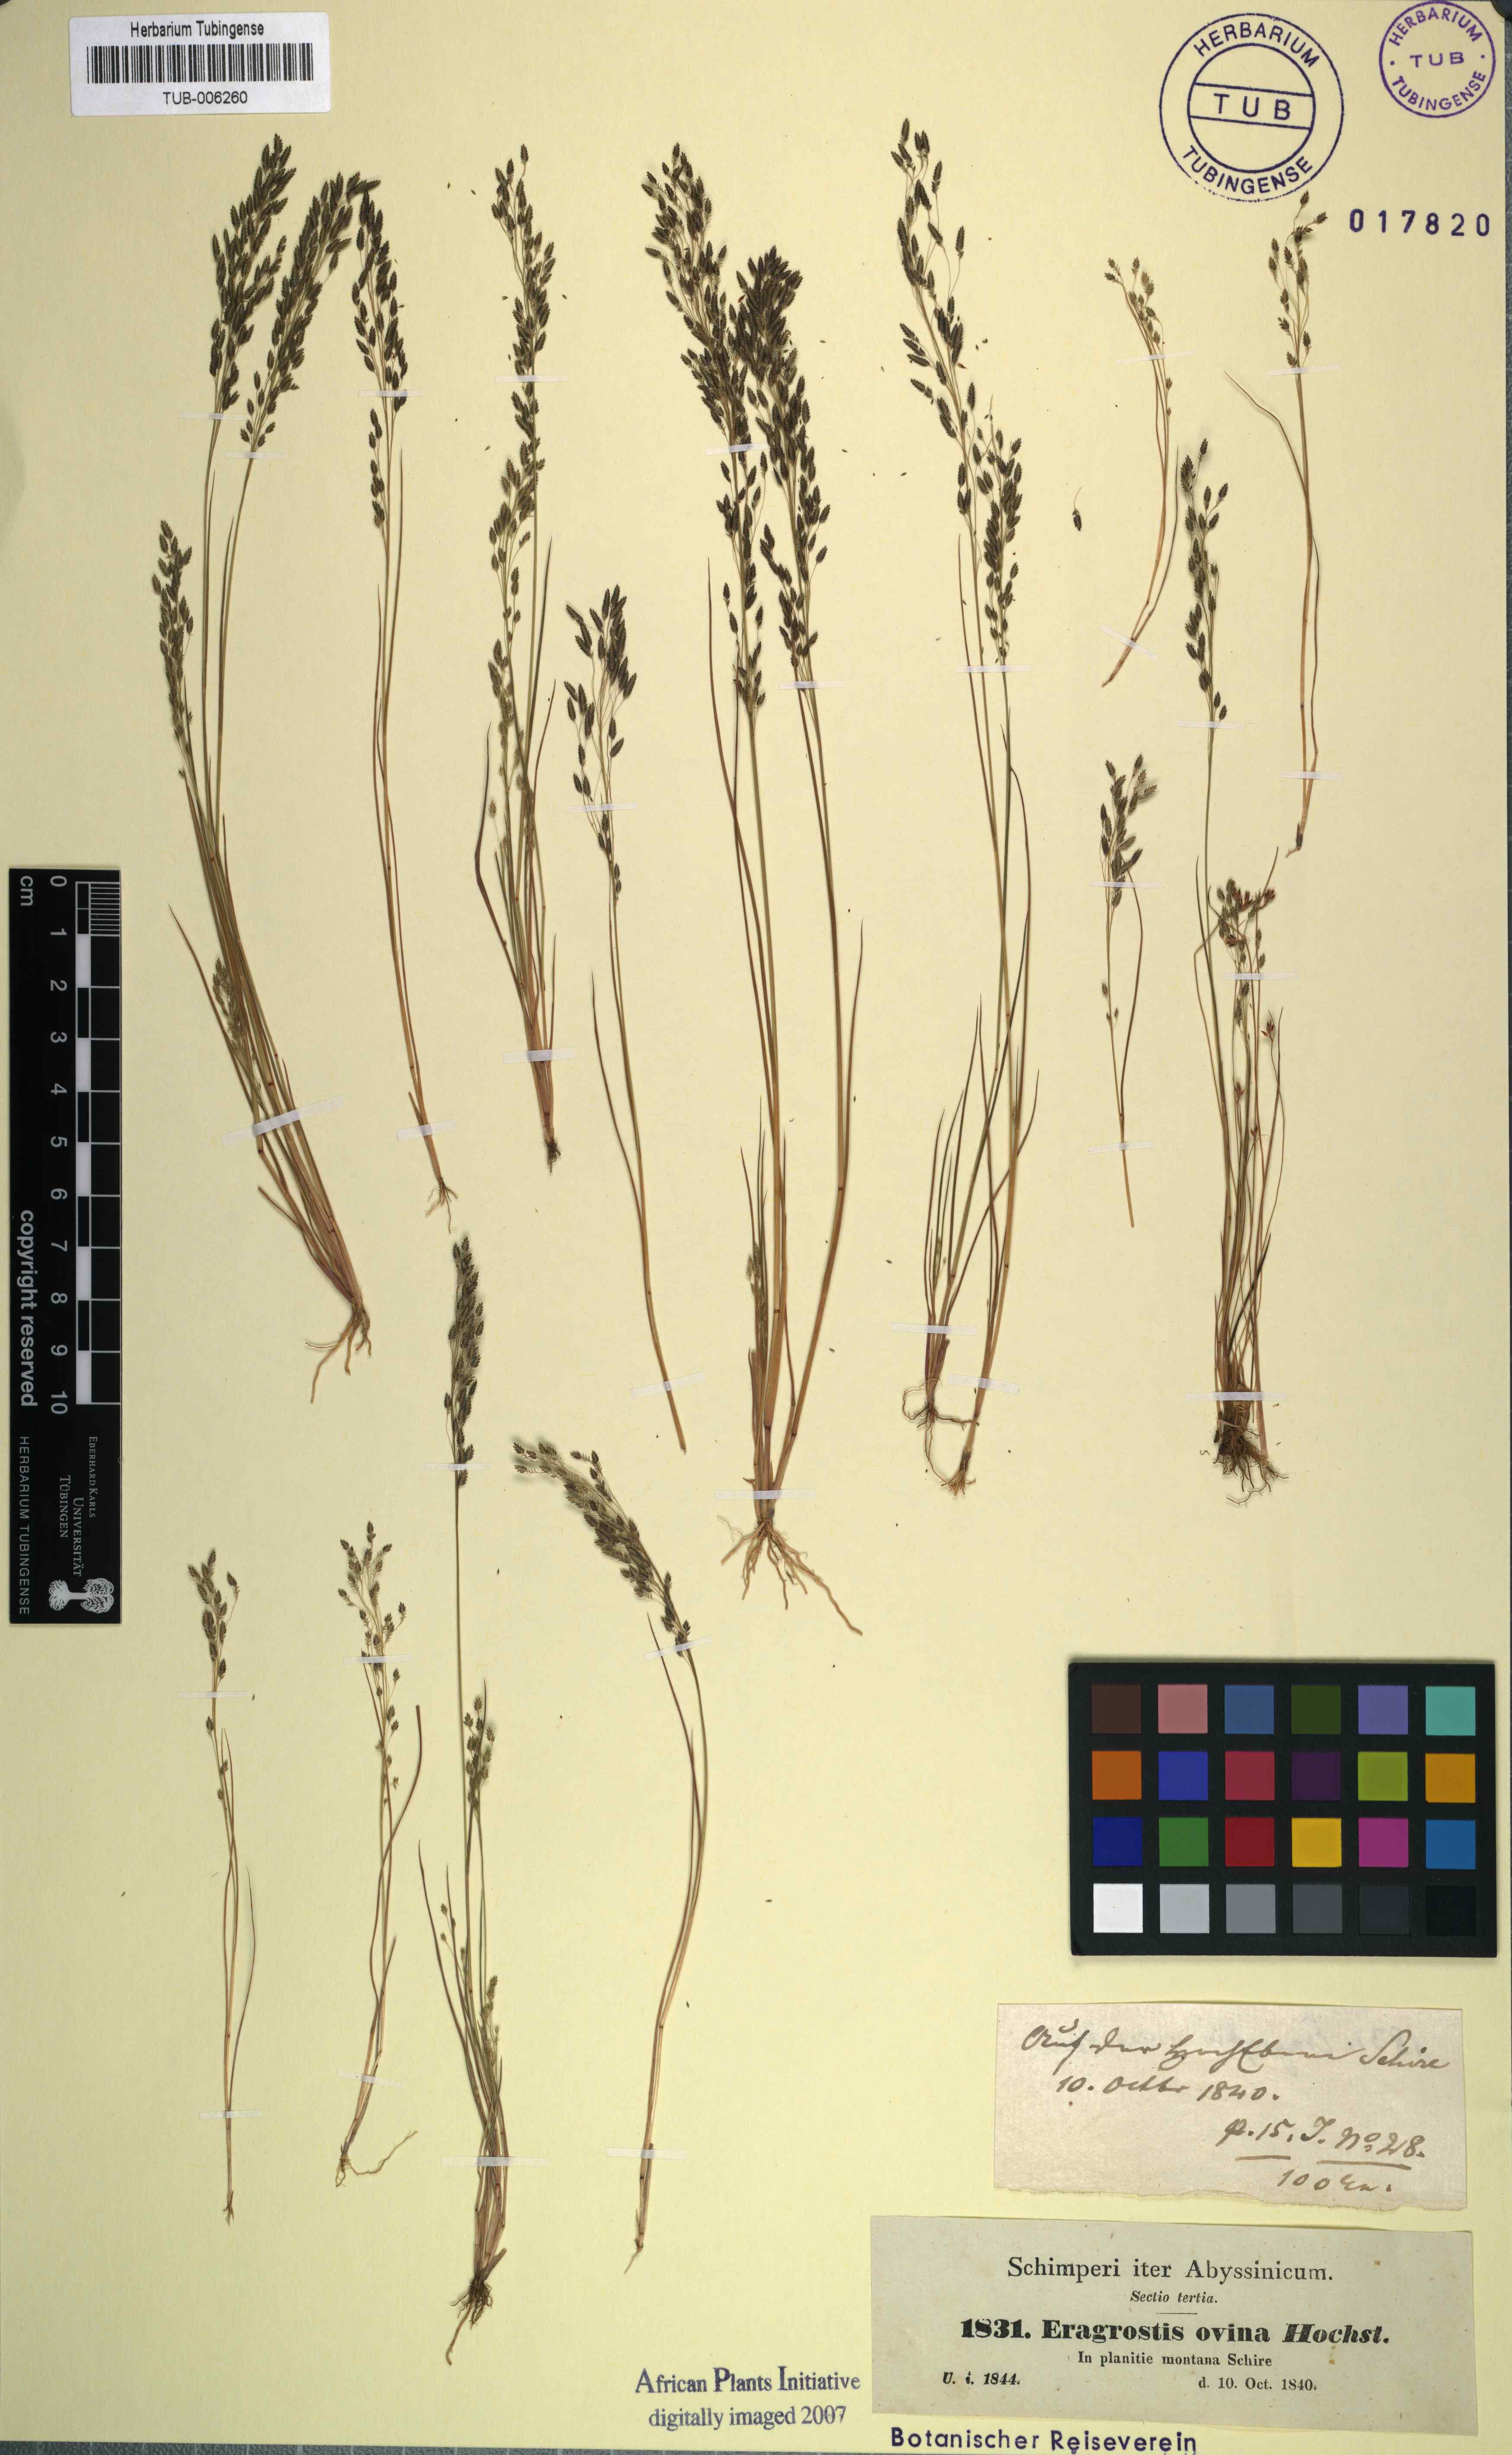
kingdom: Plantae
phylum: Tracheophyta
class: Liliopsida
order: Poales
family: Poaceae
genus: Eragrostis
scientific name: Eragrostis brownii
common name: Lovegrass
